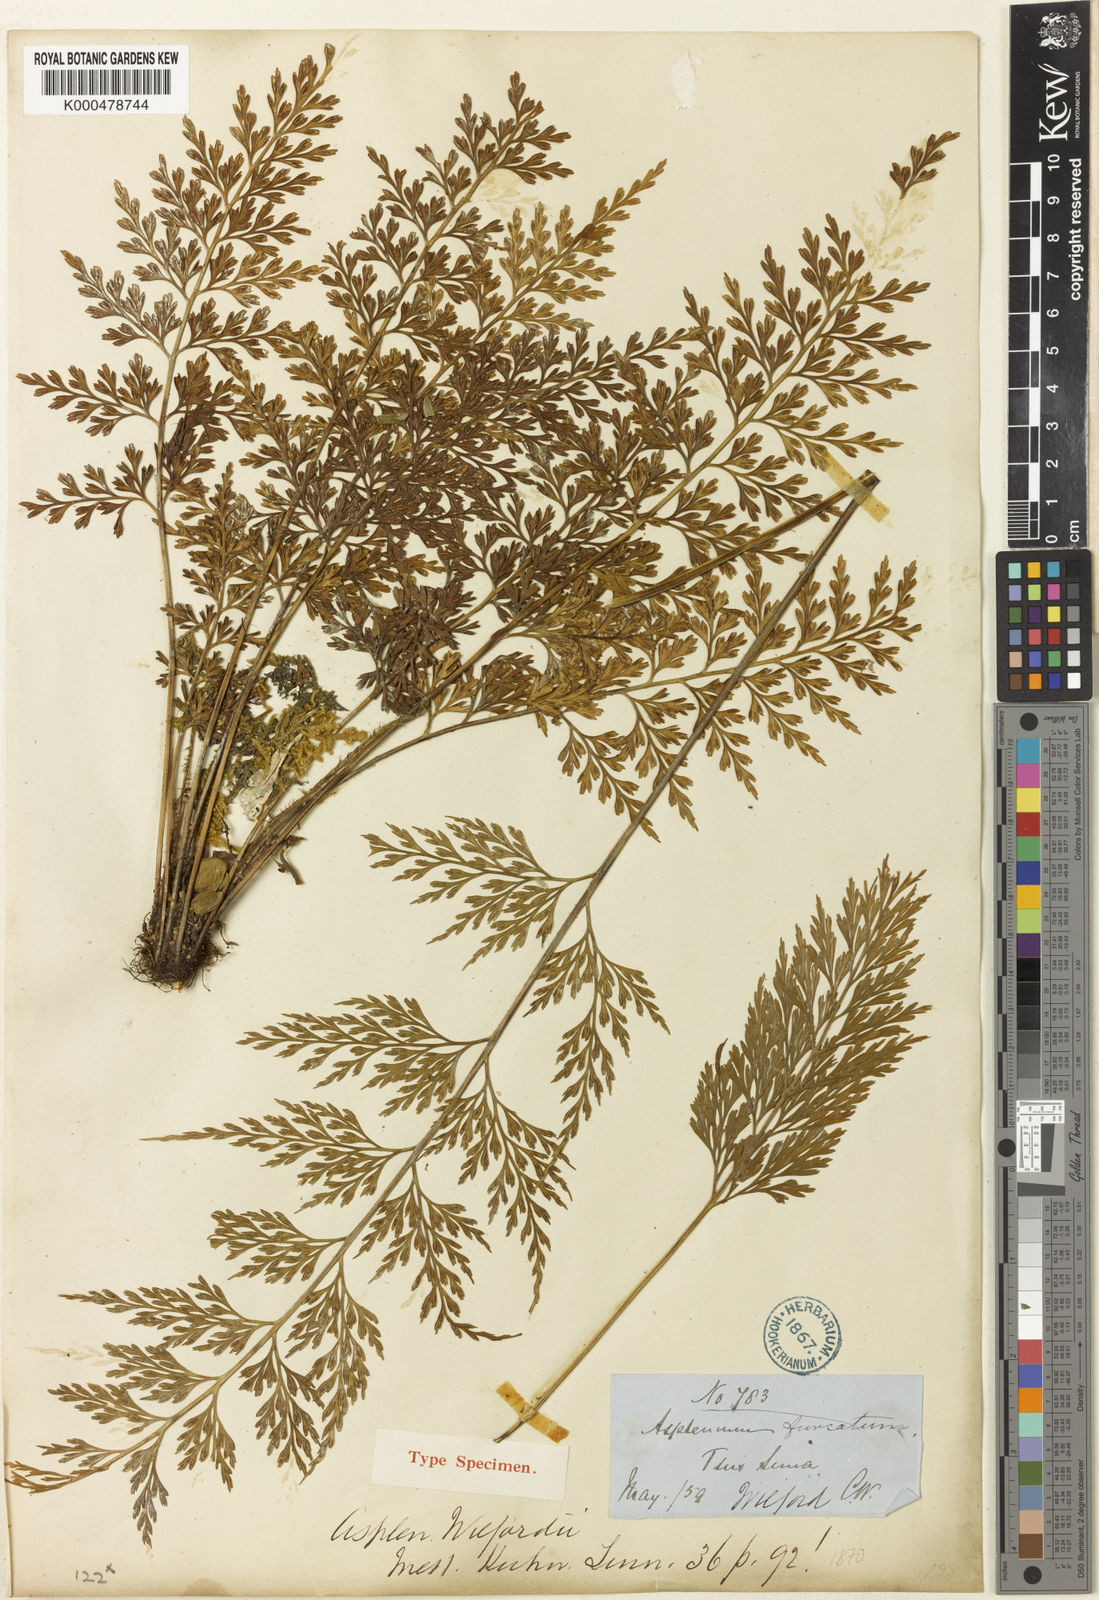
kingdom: Plantae
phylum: Tracheophyta
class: Polypodiopsida
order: Polypodiales
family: Aspleniaceae
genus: Asplenium
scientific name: Asplenium wilfordii
